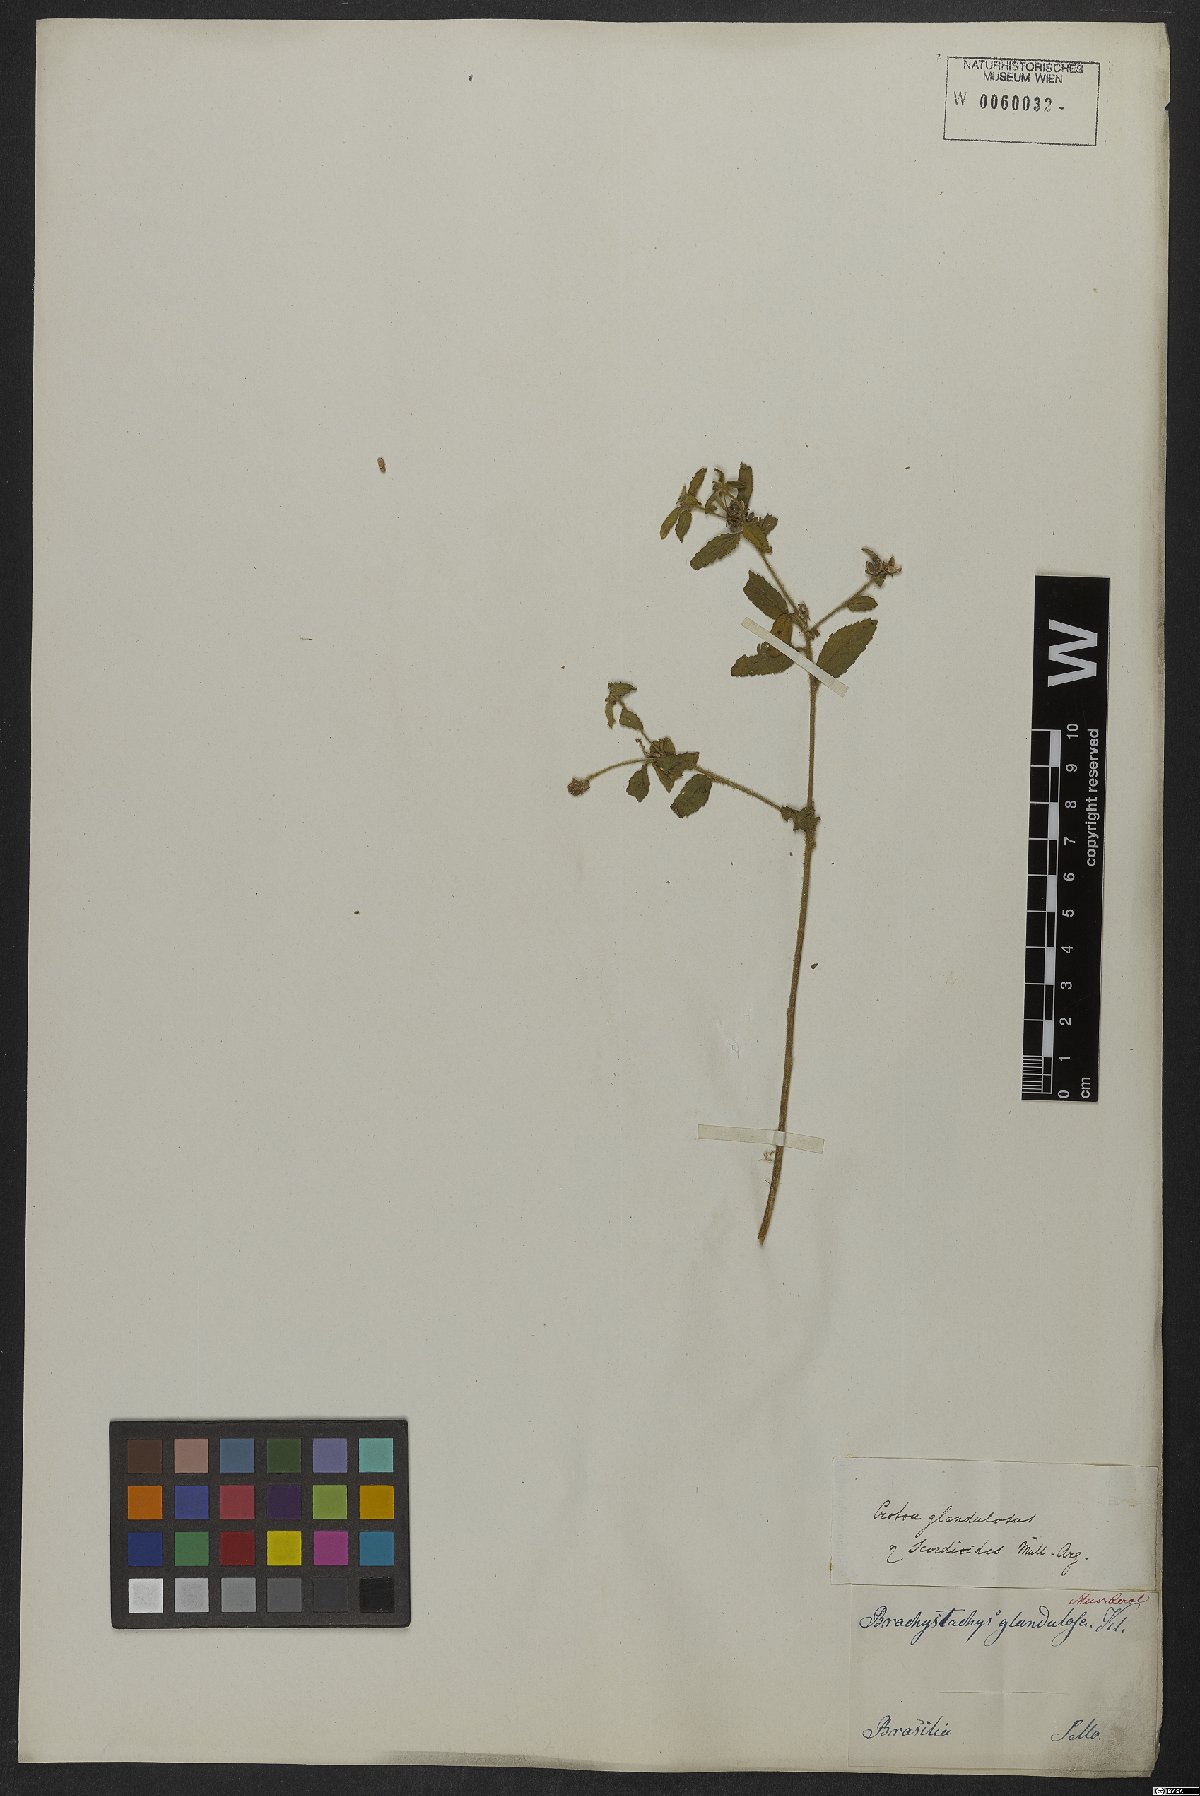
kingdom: Plantae
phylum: Tracheophyta
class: Magnoliopsida
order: Malpighiales
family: Euphorbiaceae
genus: Croton
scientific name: Croton glandulosus
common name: Tropic croton
